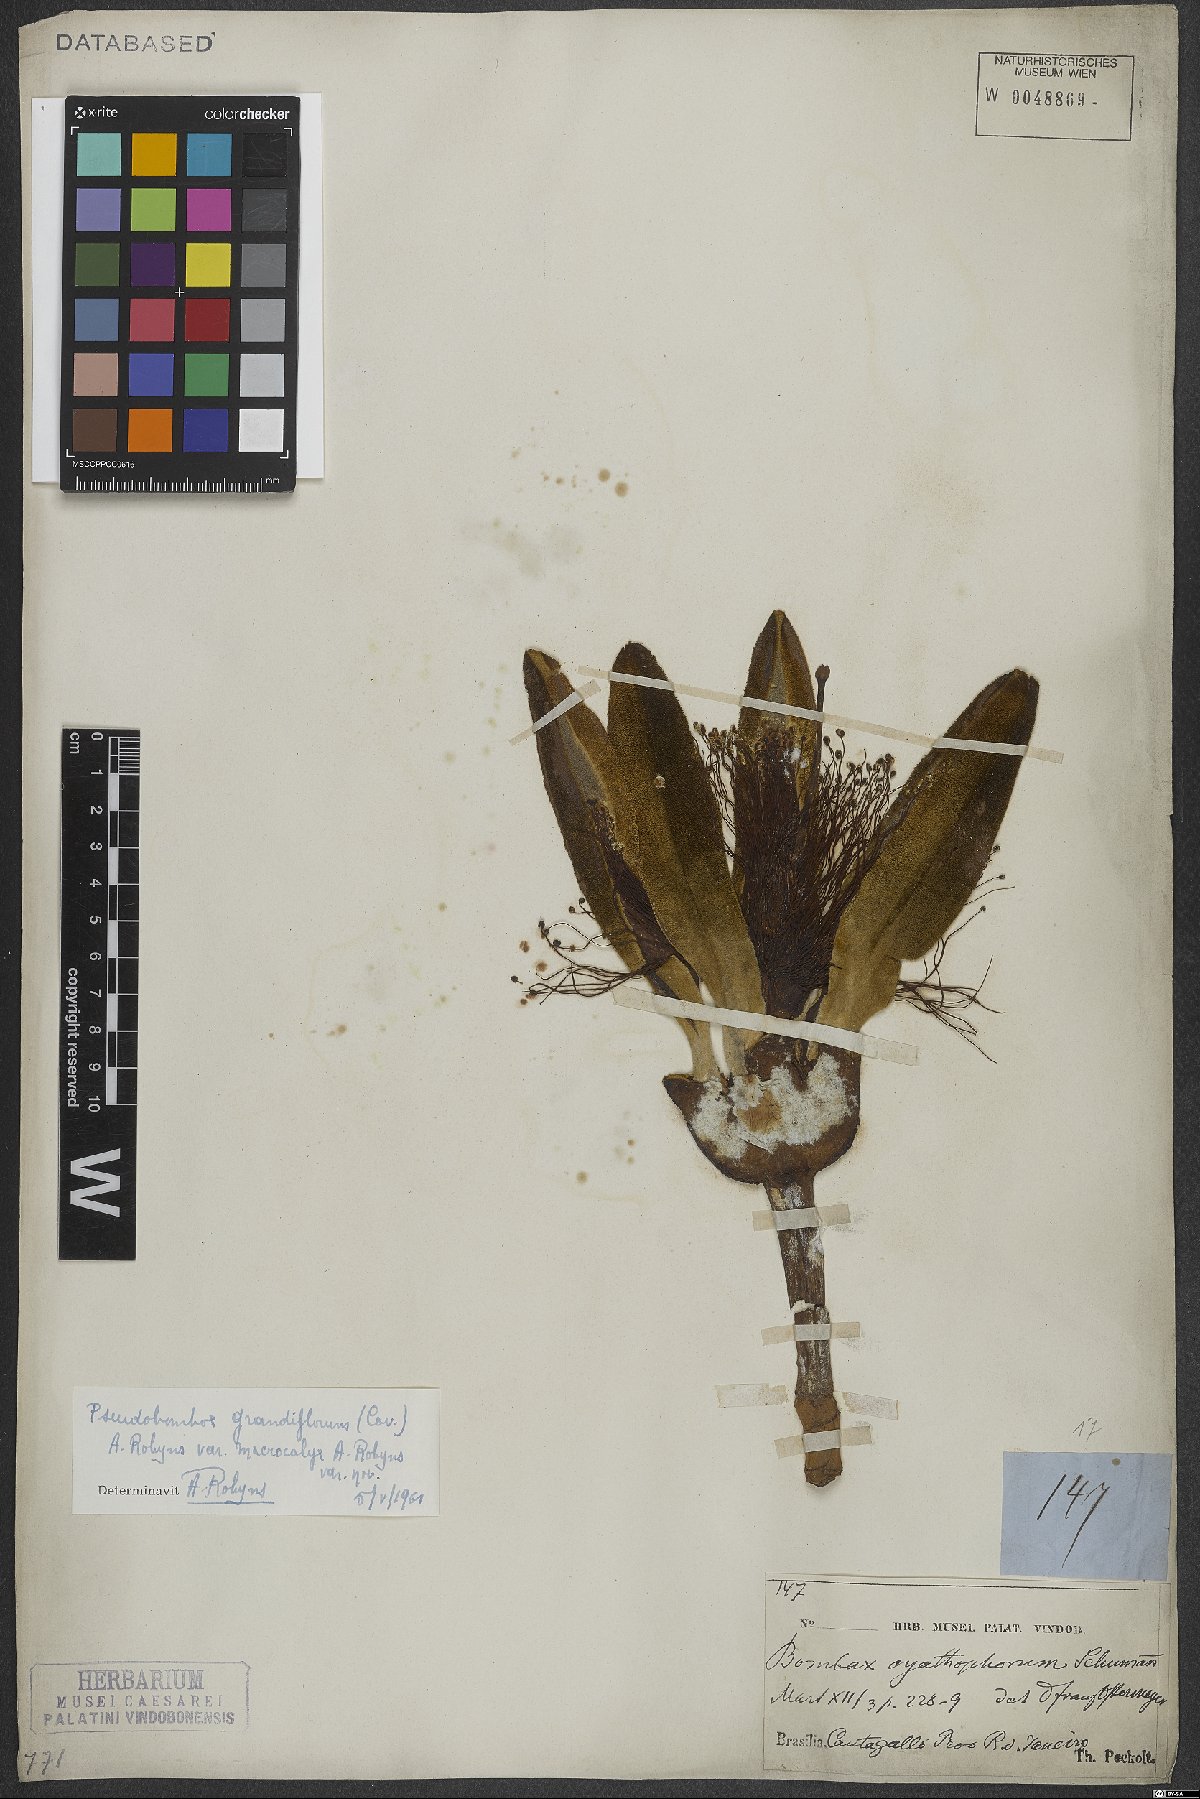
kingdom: Plantae
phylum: Tracheophyta
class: Magnoliopsida
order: Malvales
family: Malvaceae
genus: Pseudobombax
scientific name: Pseudobombax grandiflorum
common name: Brazilian shaving-brush-tree
